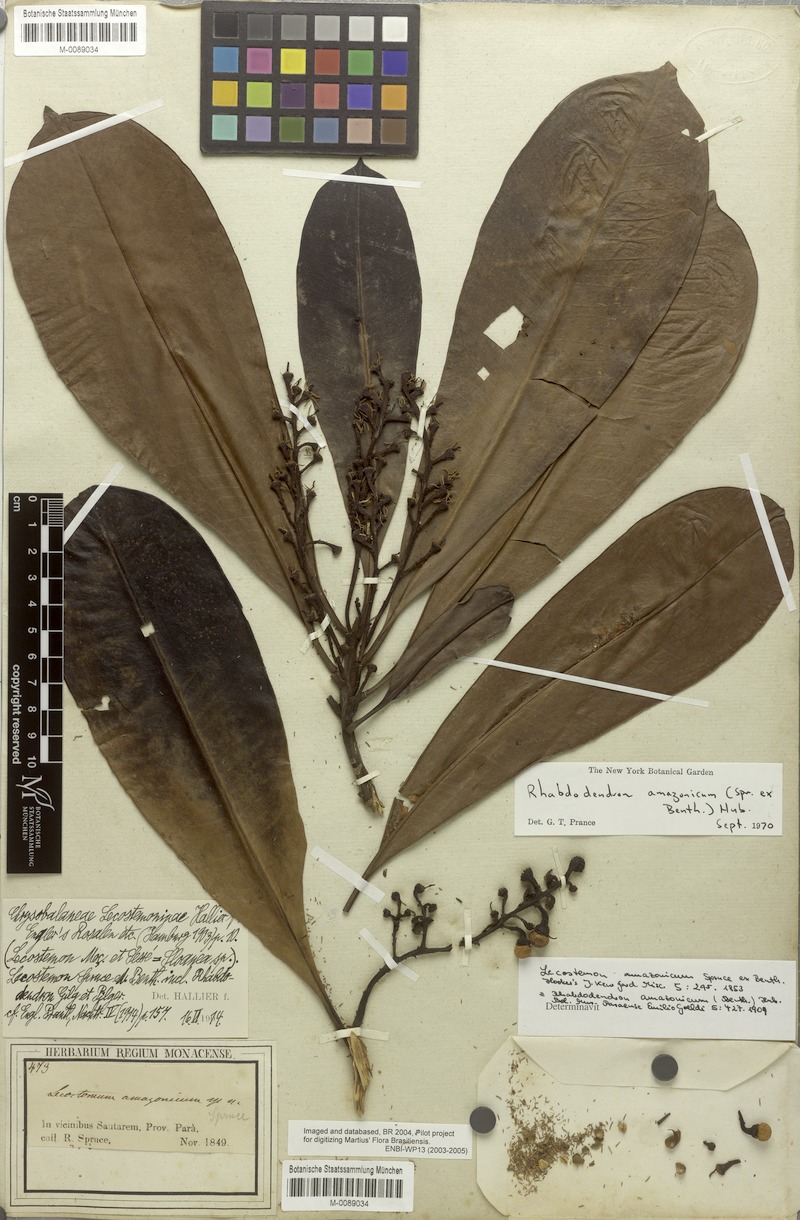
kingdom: Plantae
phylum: Tracheophyta
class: Magnoliopsida
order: Caryophyllales
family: Rhabdodendraceae
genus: Rhabdodendron
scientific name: Rhabdodendron amazonicum
